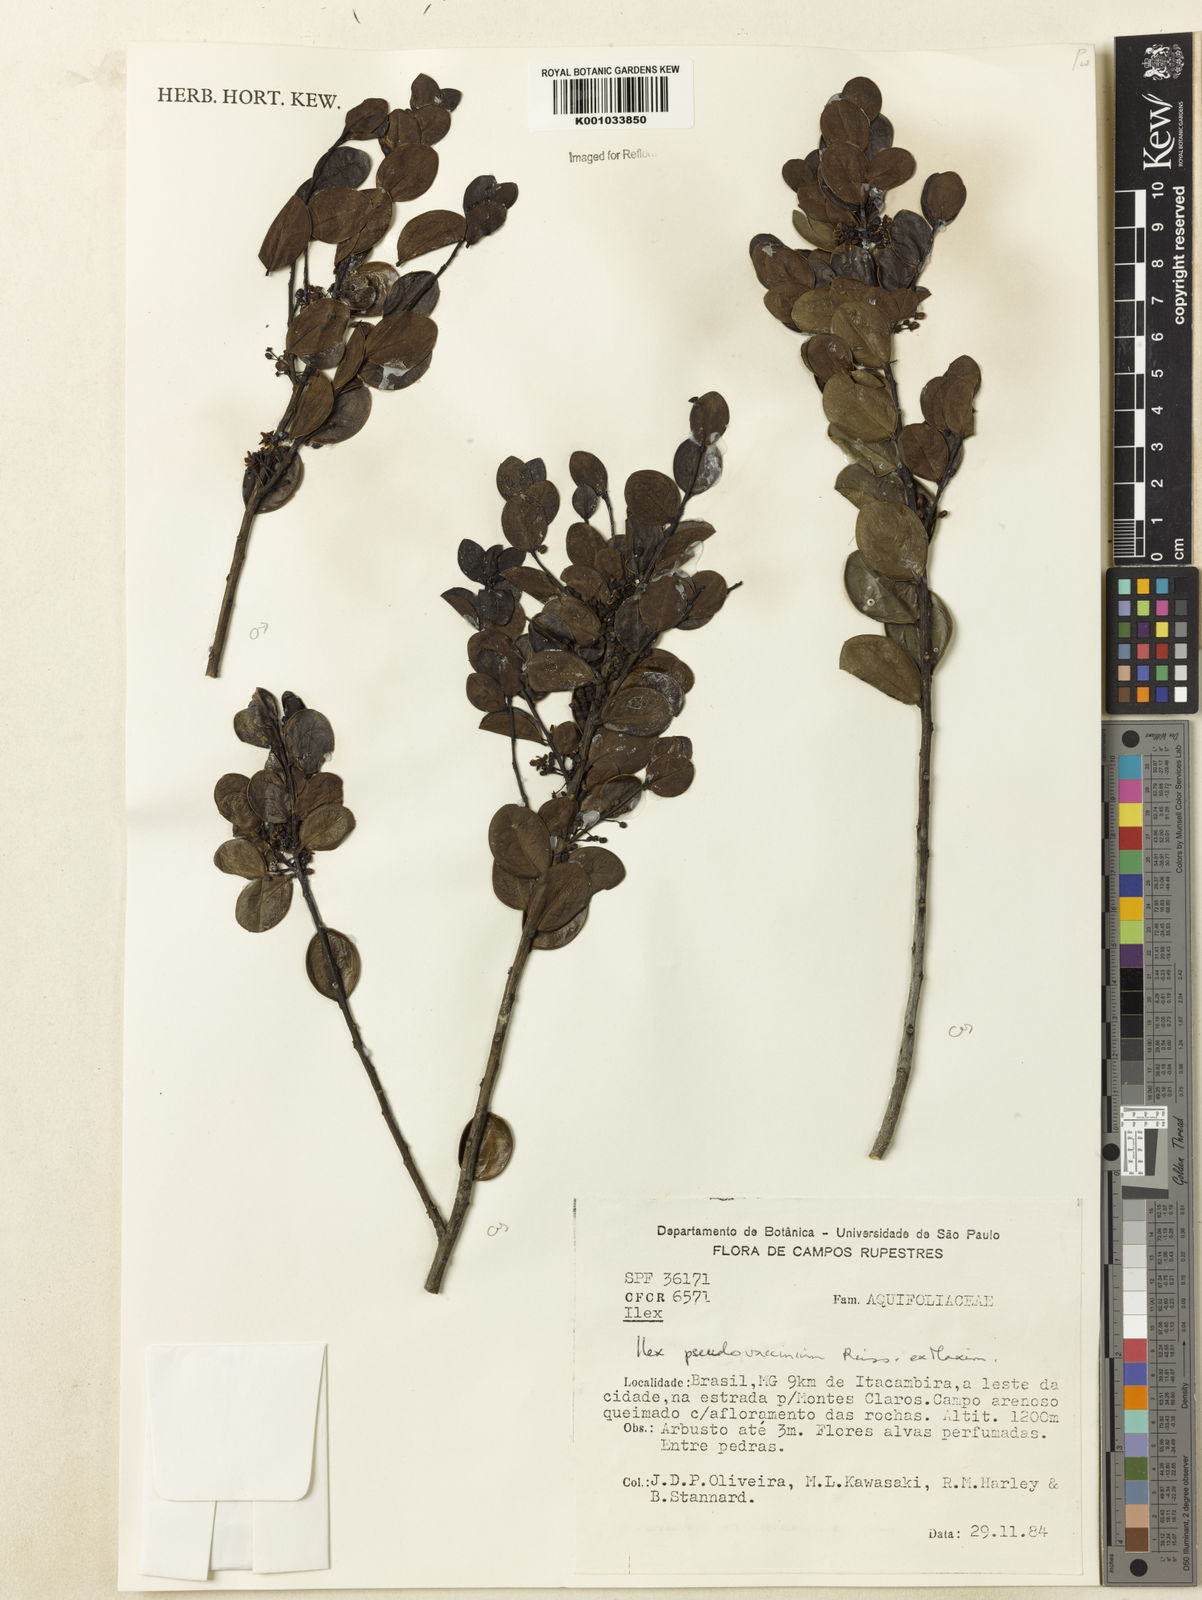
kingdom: Plantae
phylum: Tracheophyta
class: Magnoliopsida
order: Aquifoliales
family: Aquifoliaceae
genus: Ilex
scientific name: Ilex pseudovaccinium
